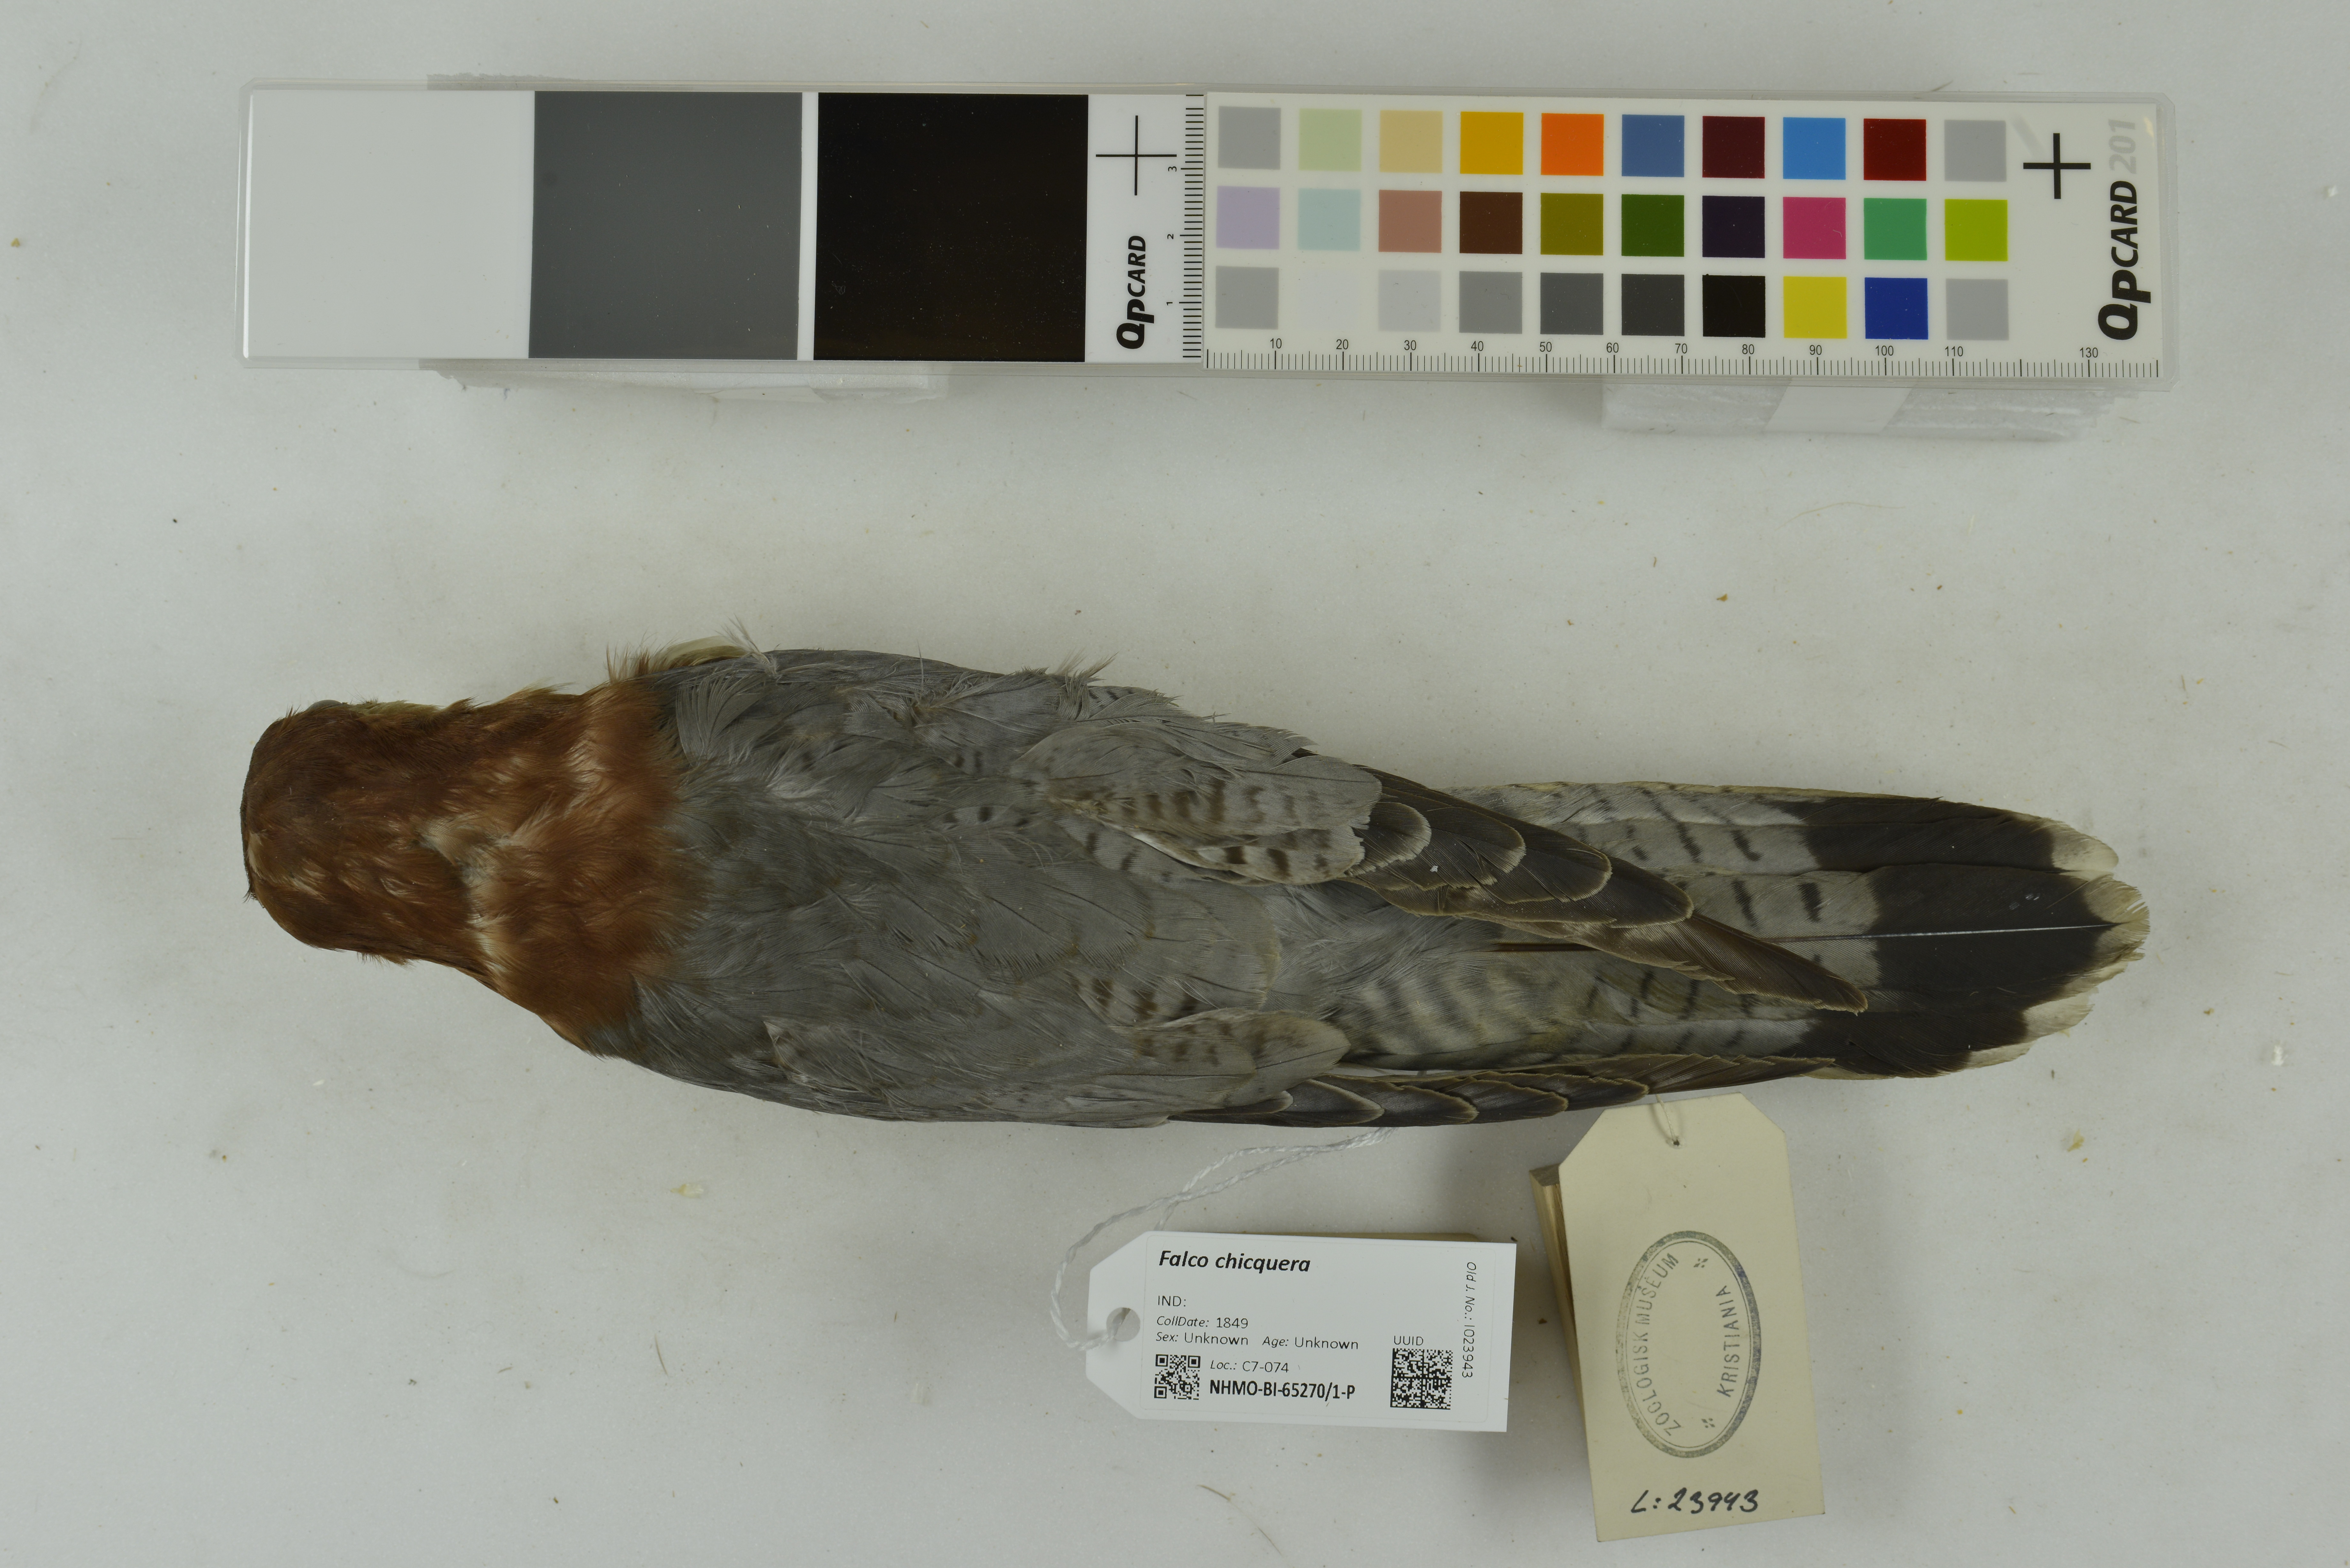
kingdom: Animalia
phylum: Chordata
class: Aves
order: Falconiformes
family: Falconidae
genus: Falco
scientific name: Falco chicquera
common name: Red-necked falcon
